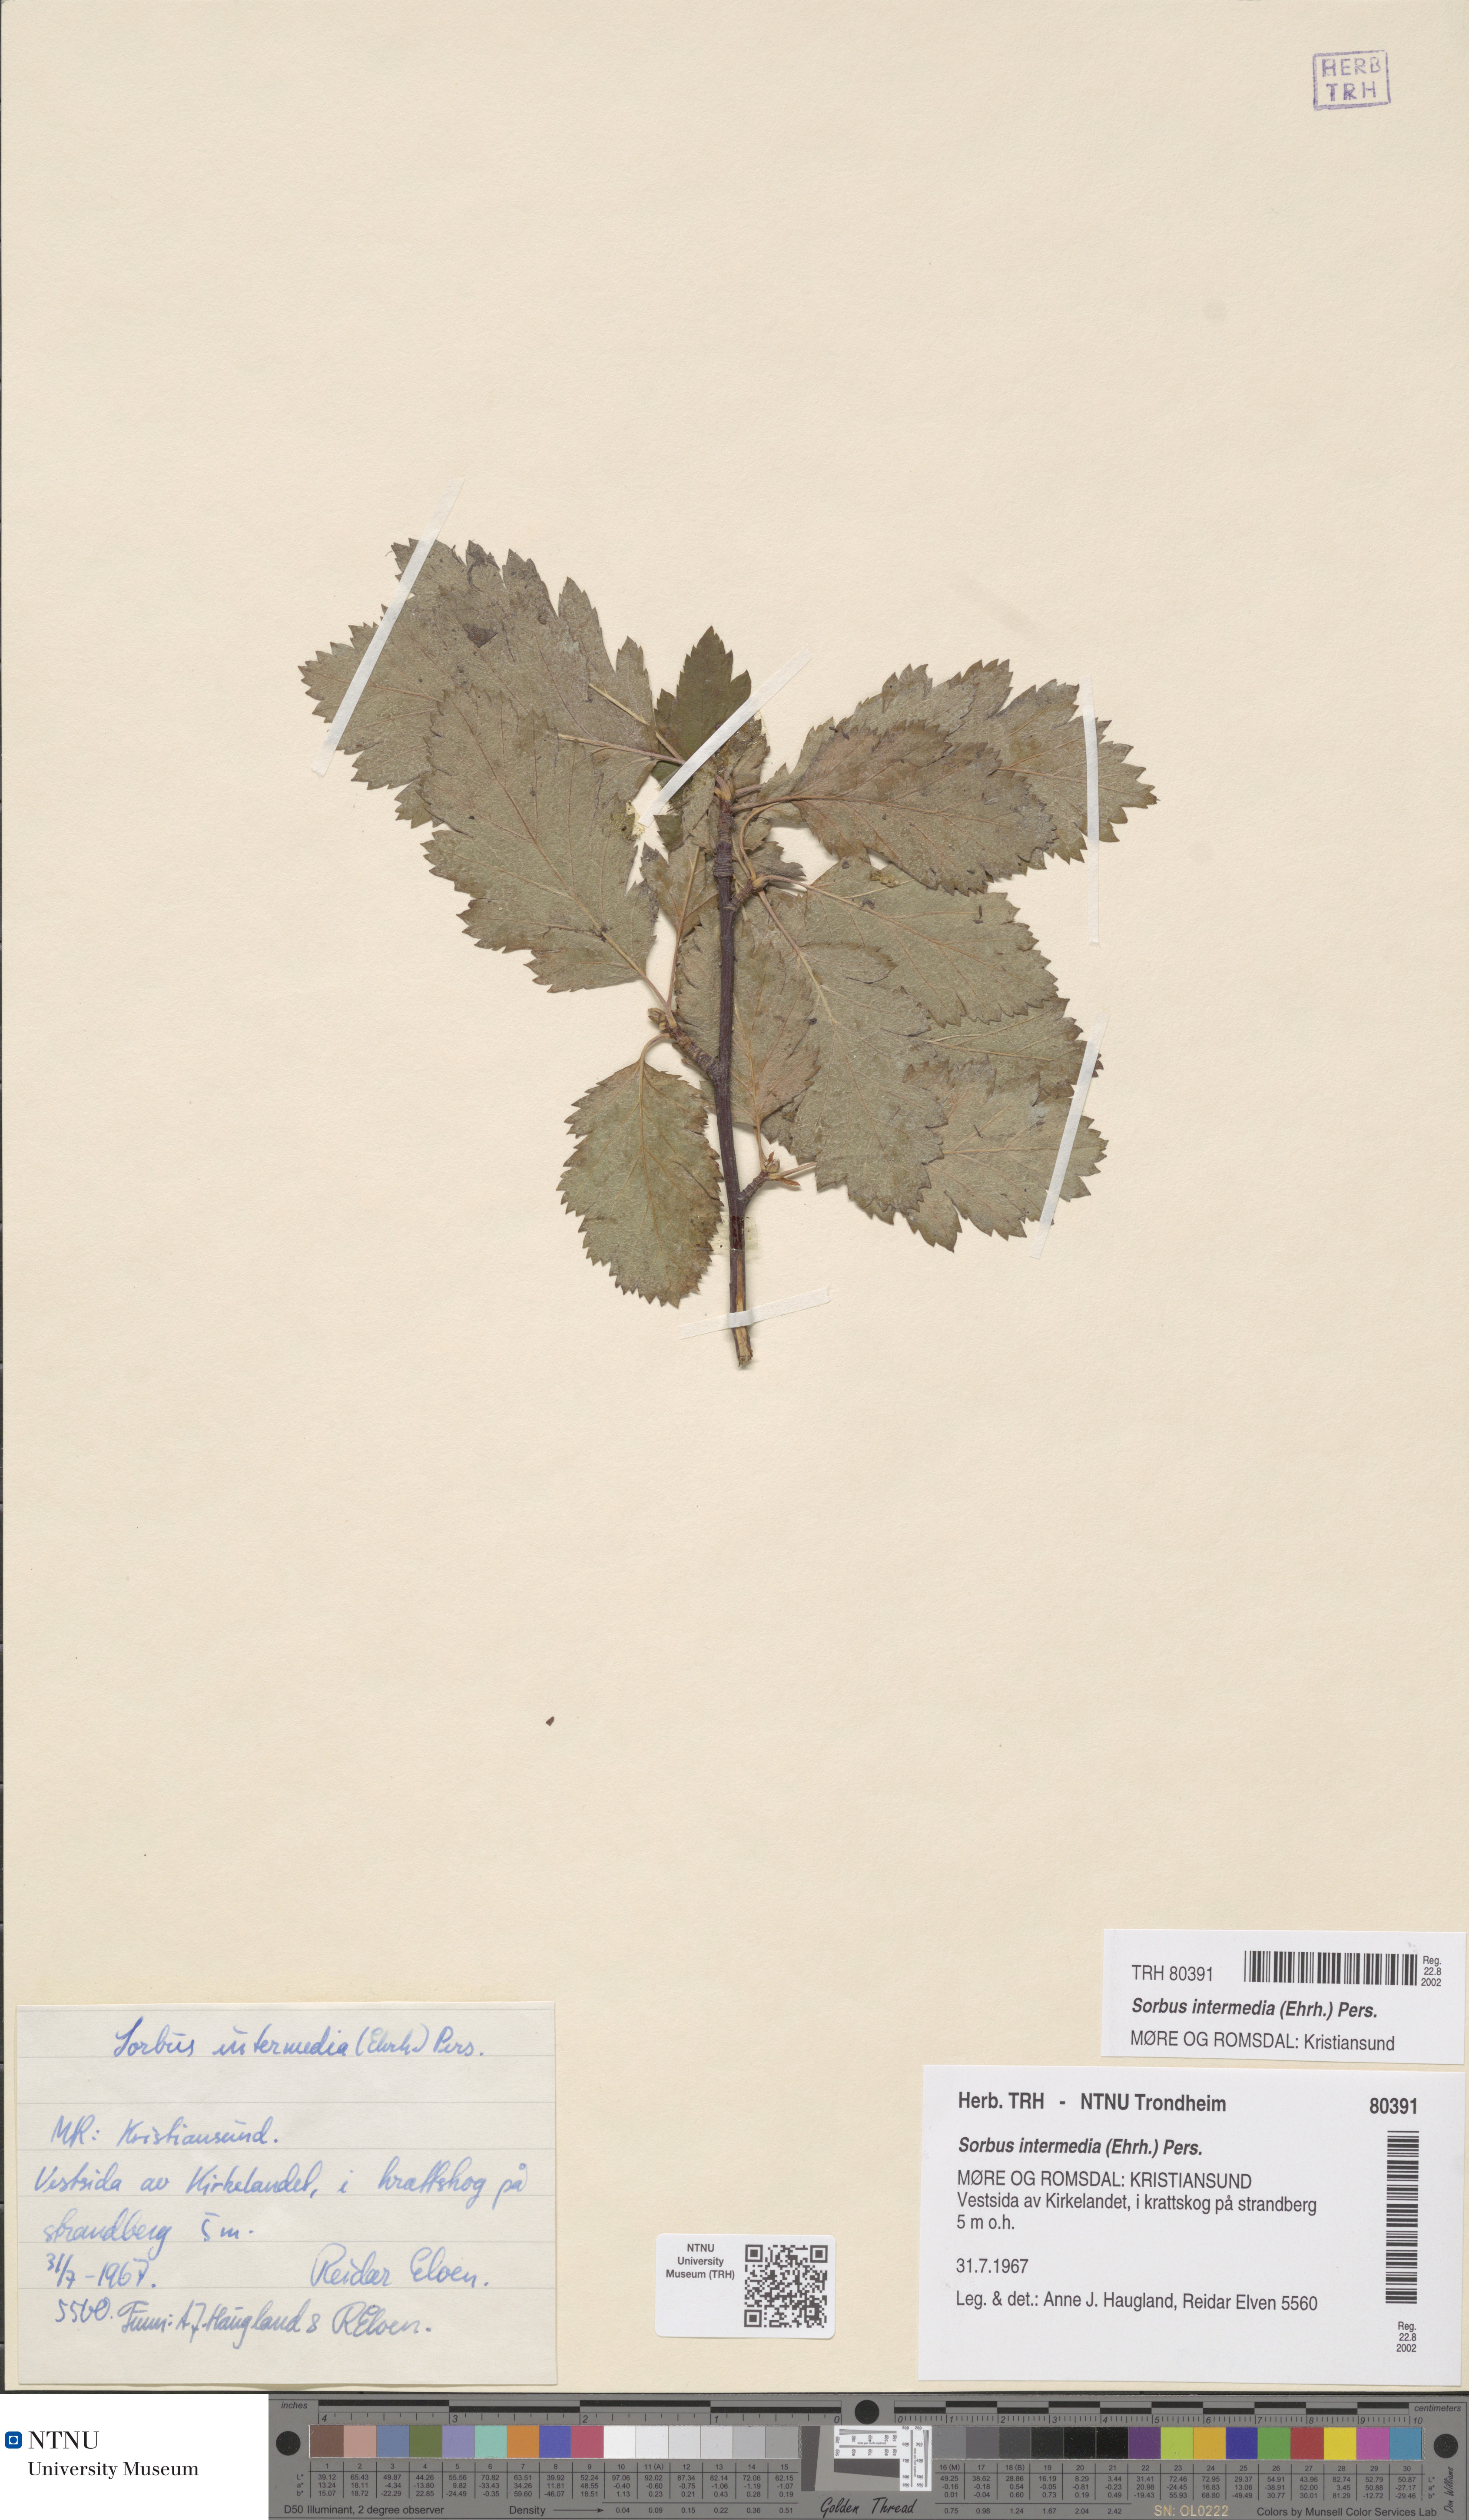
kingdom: Plantae
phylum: Tracheophyta
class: Magnoliopsida
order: Rosales
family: Rosaceae
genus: Scandosorbus
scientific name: Scandosorbus intermedia
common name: Swedish whitebeam
